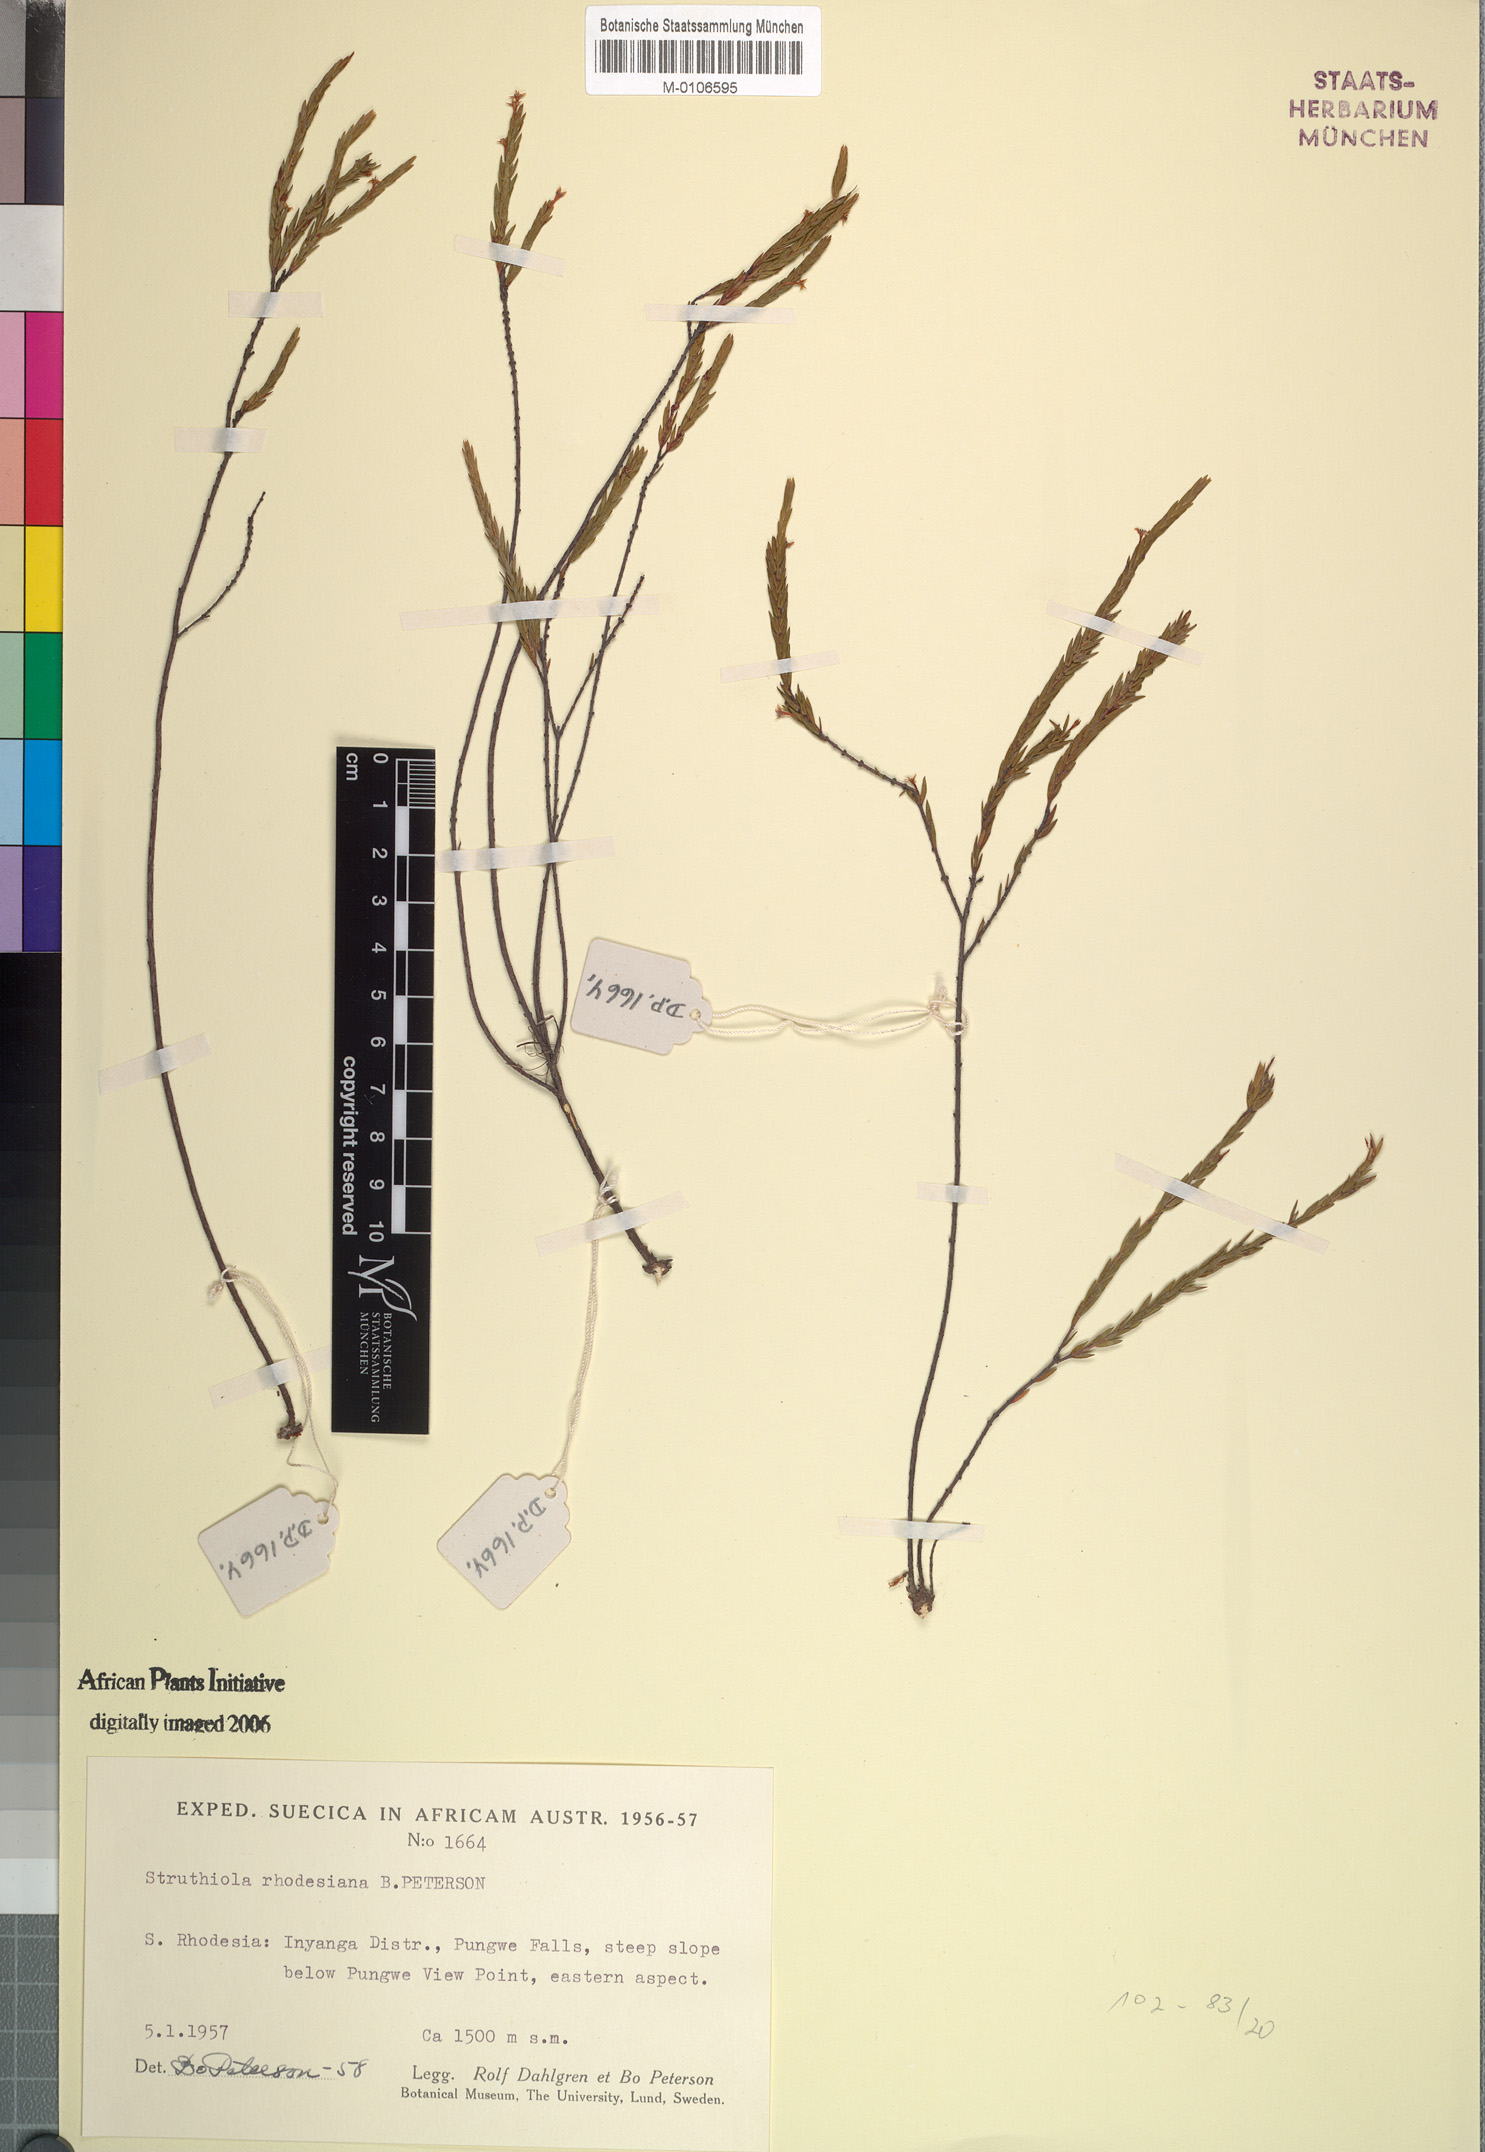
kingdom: Plantae
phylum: Tracheophyta
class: Magnoliopsida
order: Malvales
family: Thymelaeaceae
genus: Struthiola
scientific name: Struthiola rhodesiana
